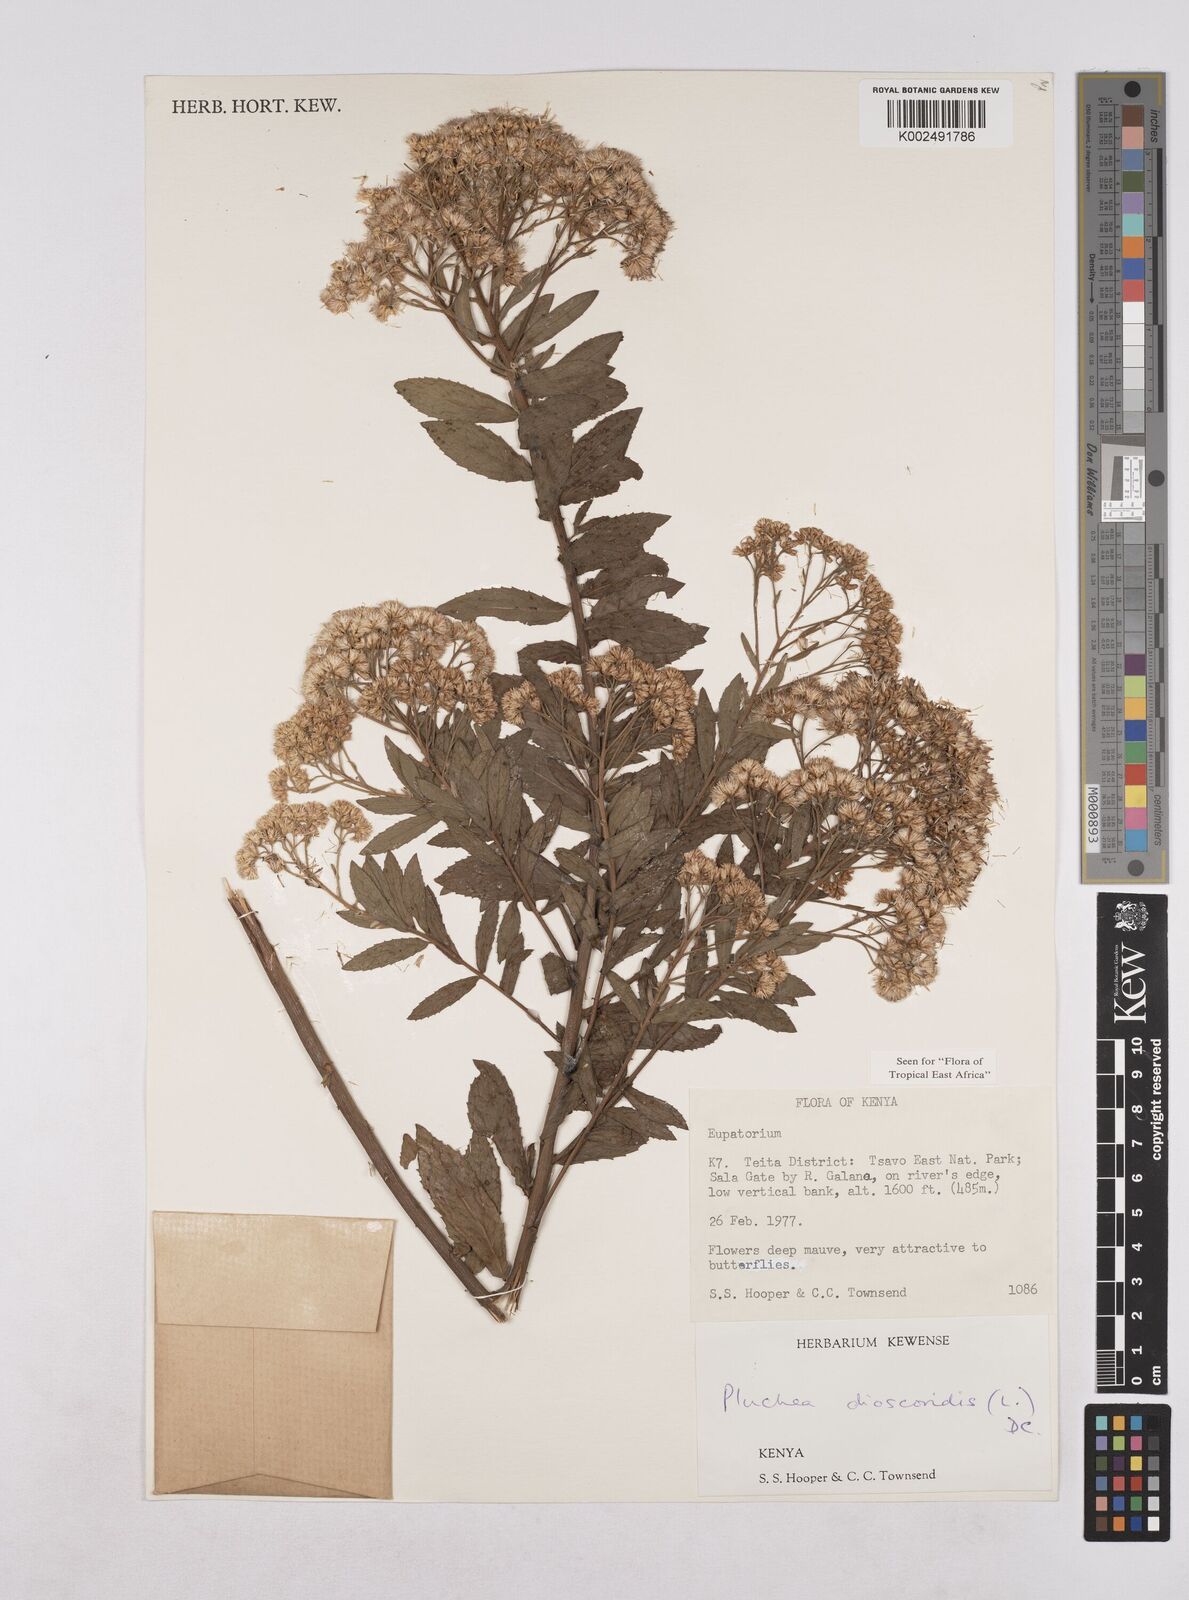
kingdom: Plantae
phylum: Tracheophyta
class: Magnoliopsida
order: Asterales
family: Asteraceae
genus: Pluchea
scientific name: Pluchea dioscoridis
